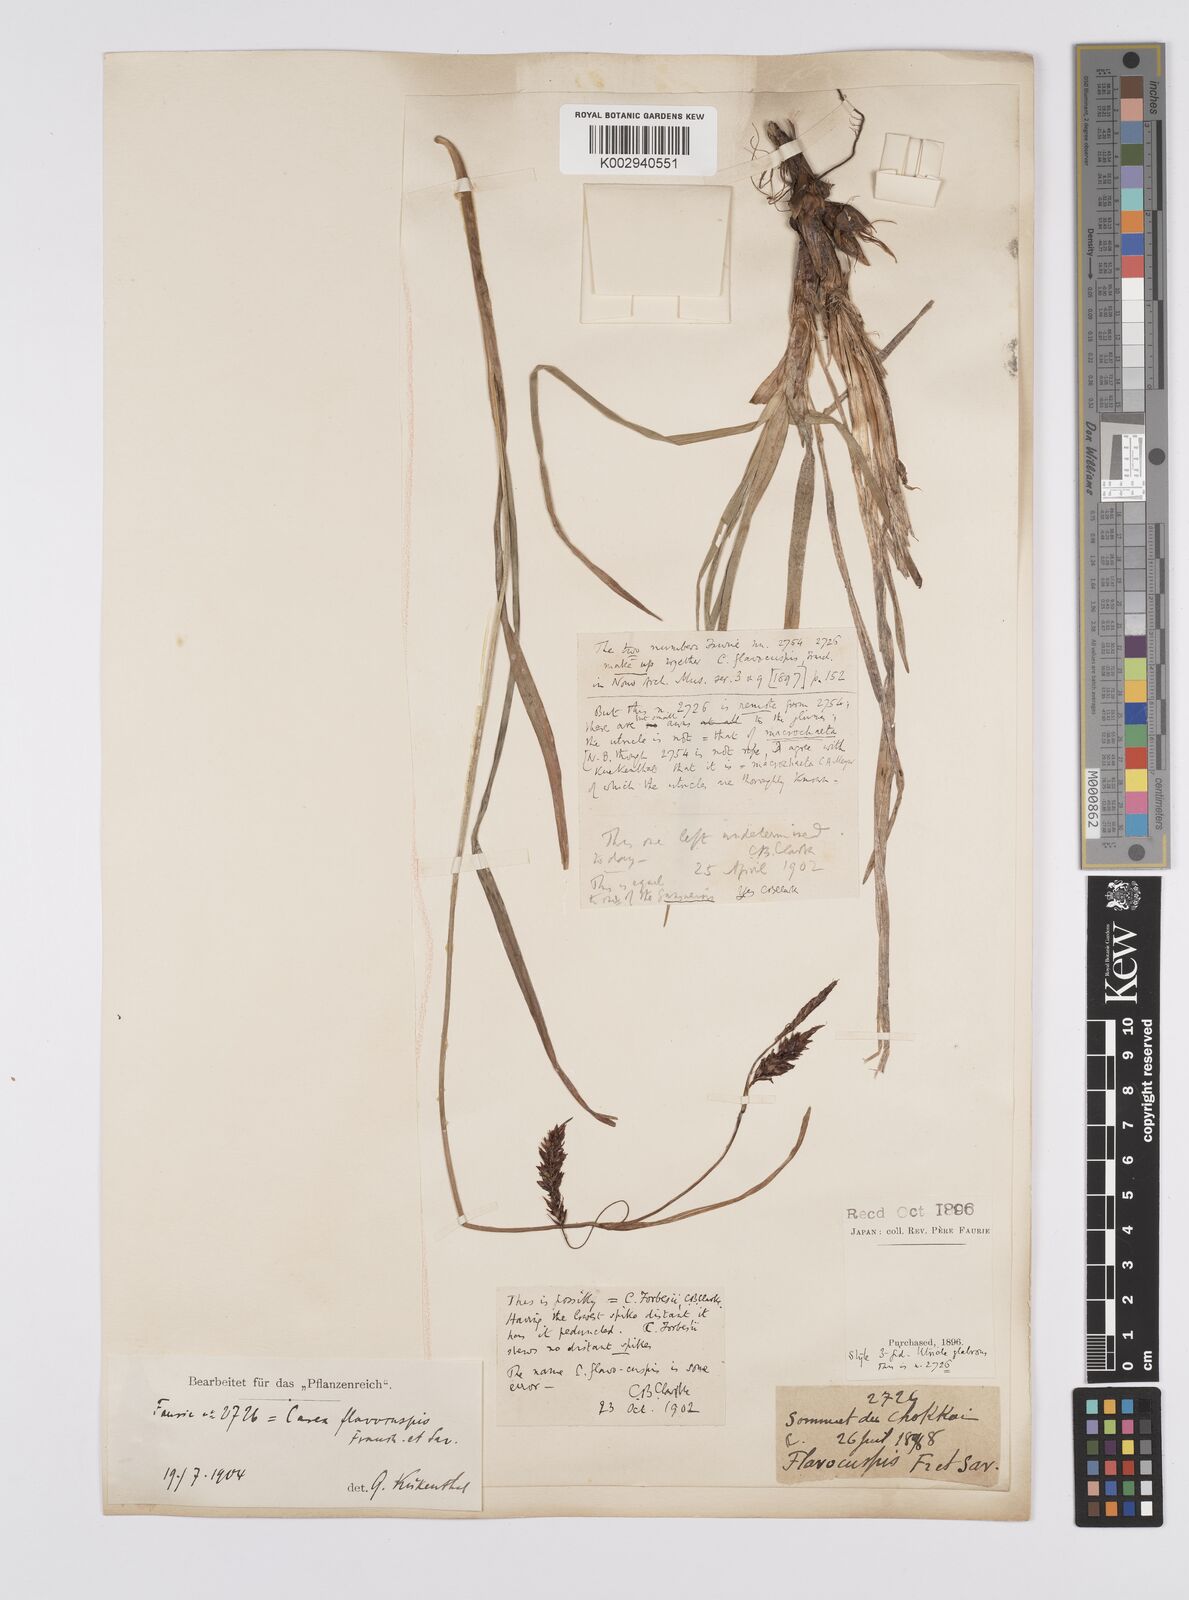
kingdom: Plantae
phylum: Tracheophyta
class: Liliopsida
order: Poales
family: Cyperaceae
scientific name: Cyperaceae
